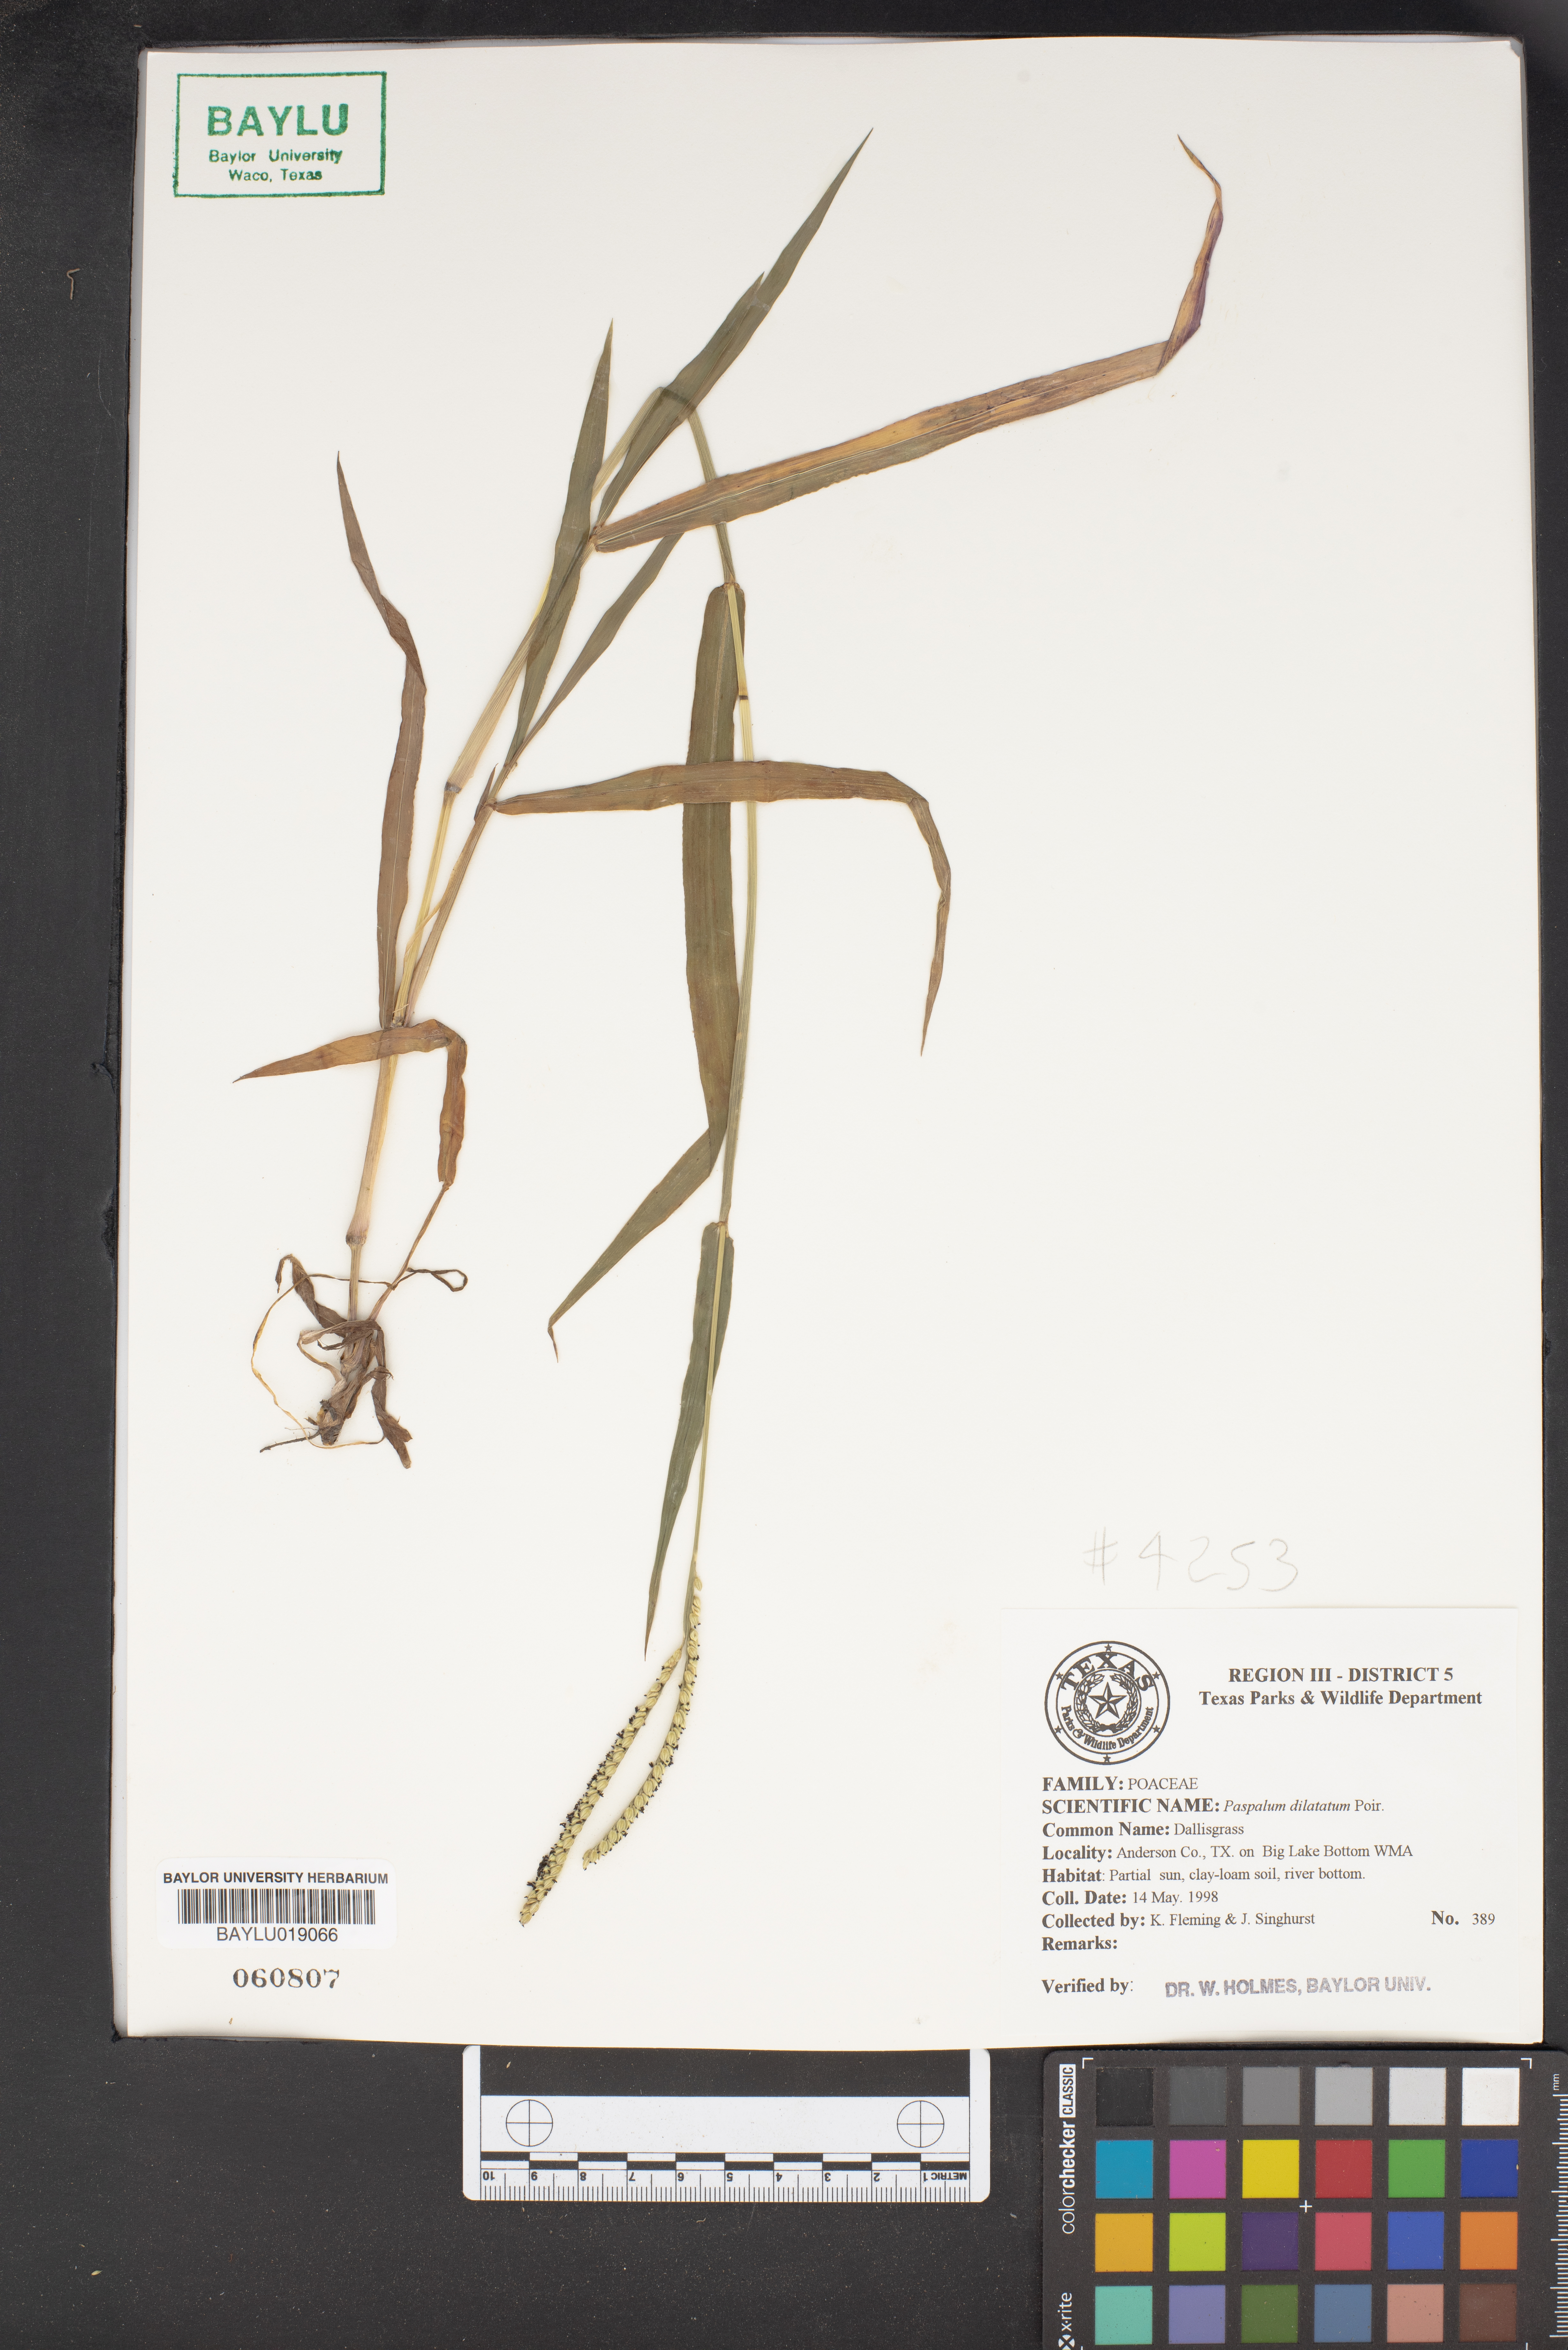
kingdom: Plantae
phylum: Tracheophyta
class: Liliopsida
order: Poales
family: Poaceae
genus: Paspalum
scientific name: Paspalum dilatatum
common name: Dallisgrass
